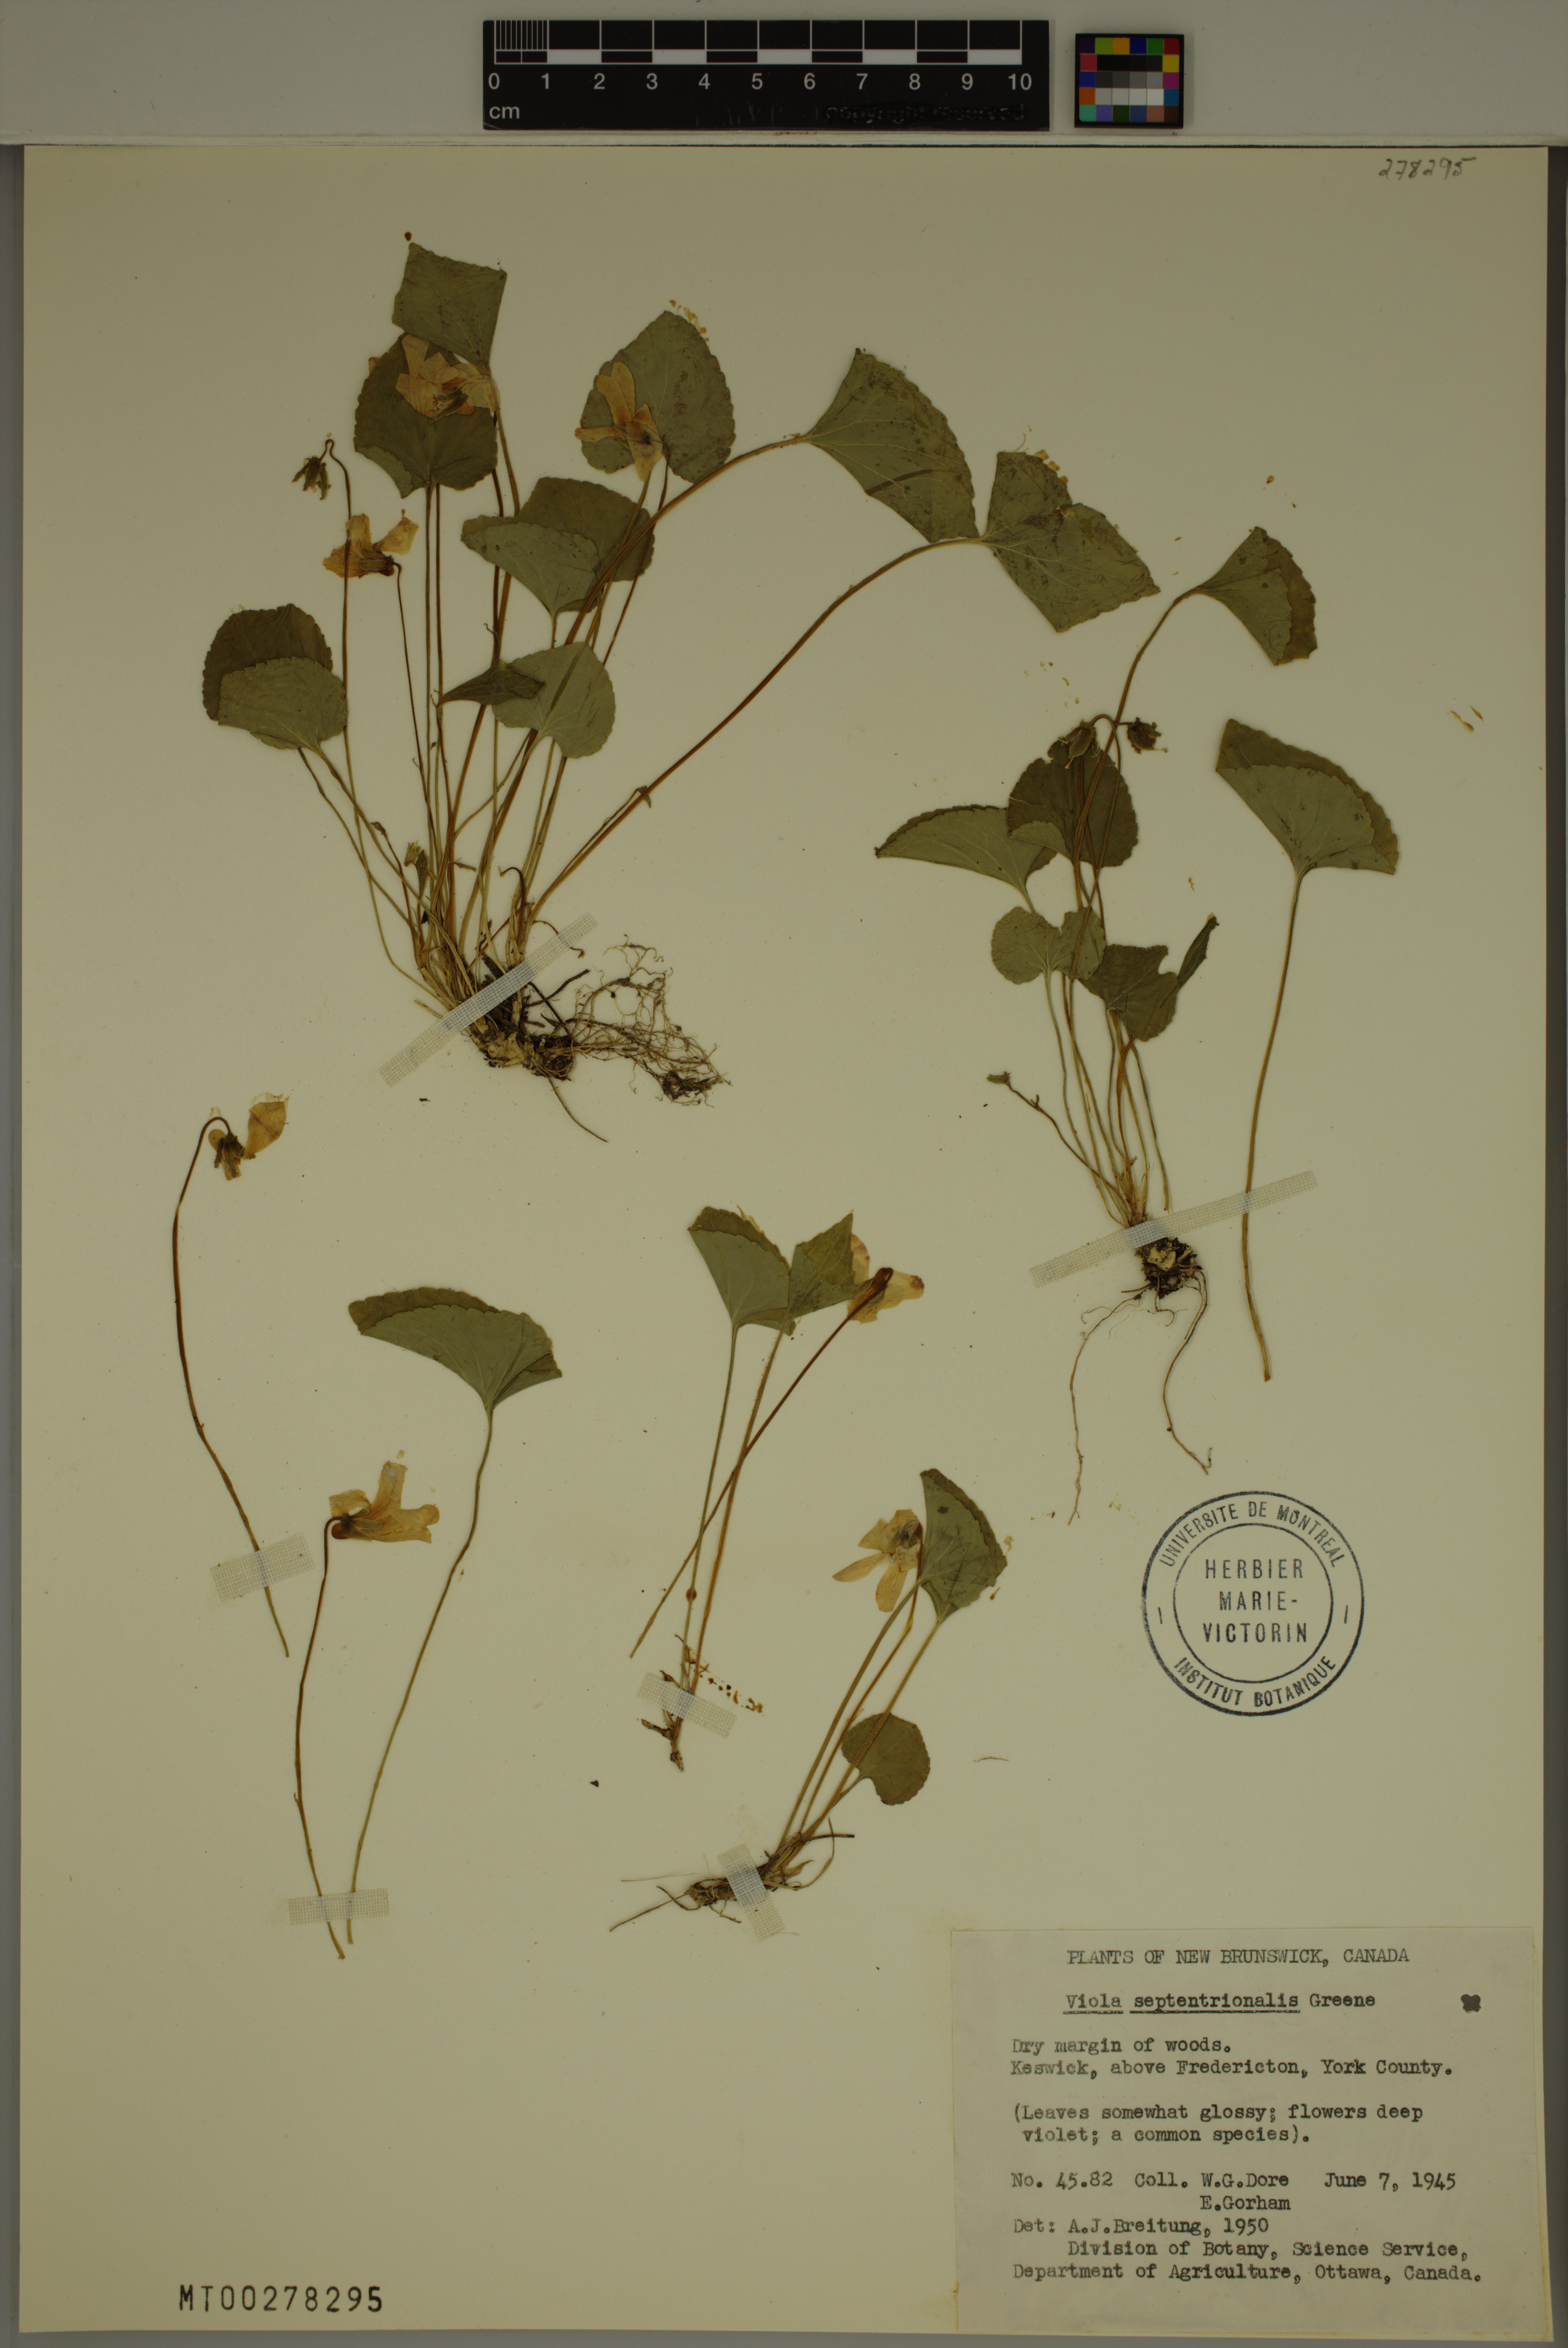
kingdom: Plantae
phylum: Tracheophyta
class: Magnoliopsida
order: Malpighiales
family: Violaceae
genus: Viola
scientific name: Viola septentrionalis
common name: Northern woodland violet
